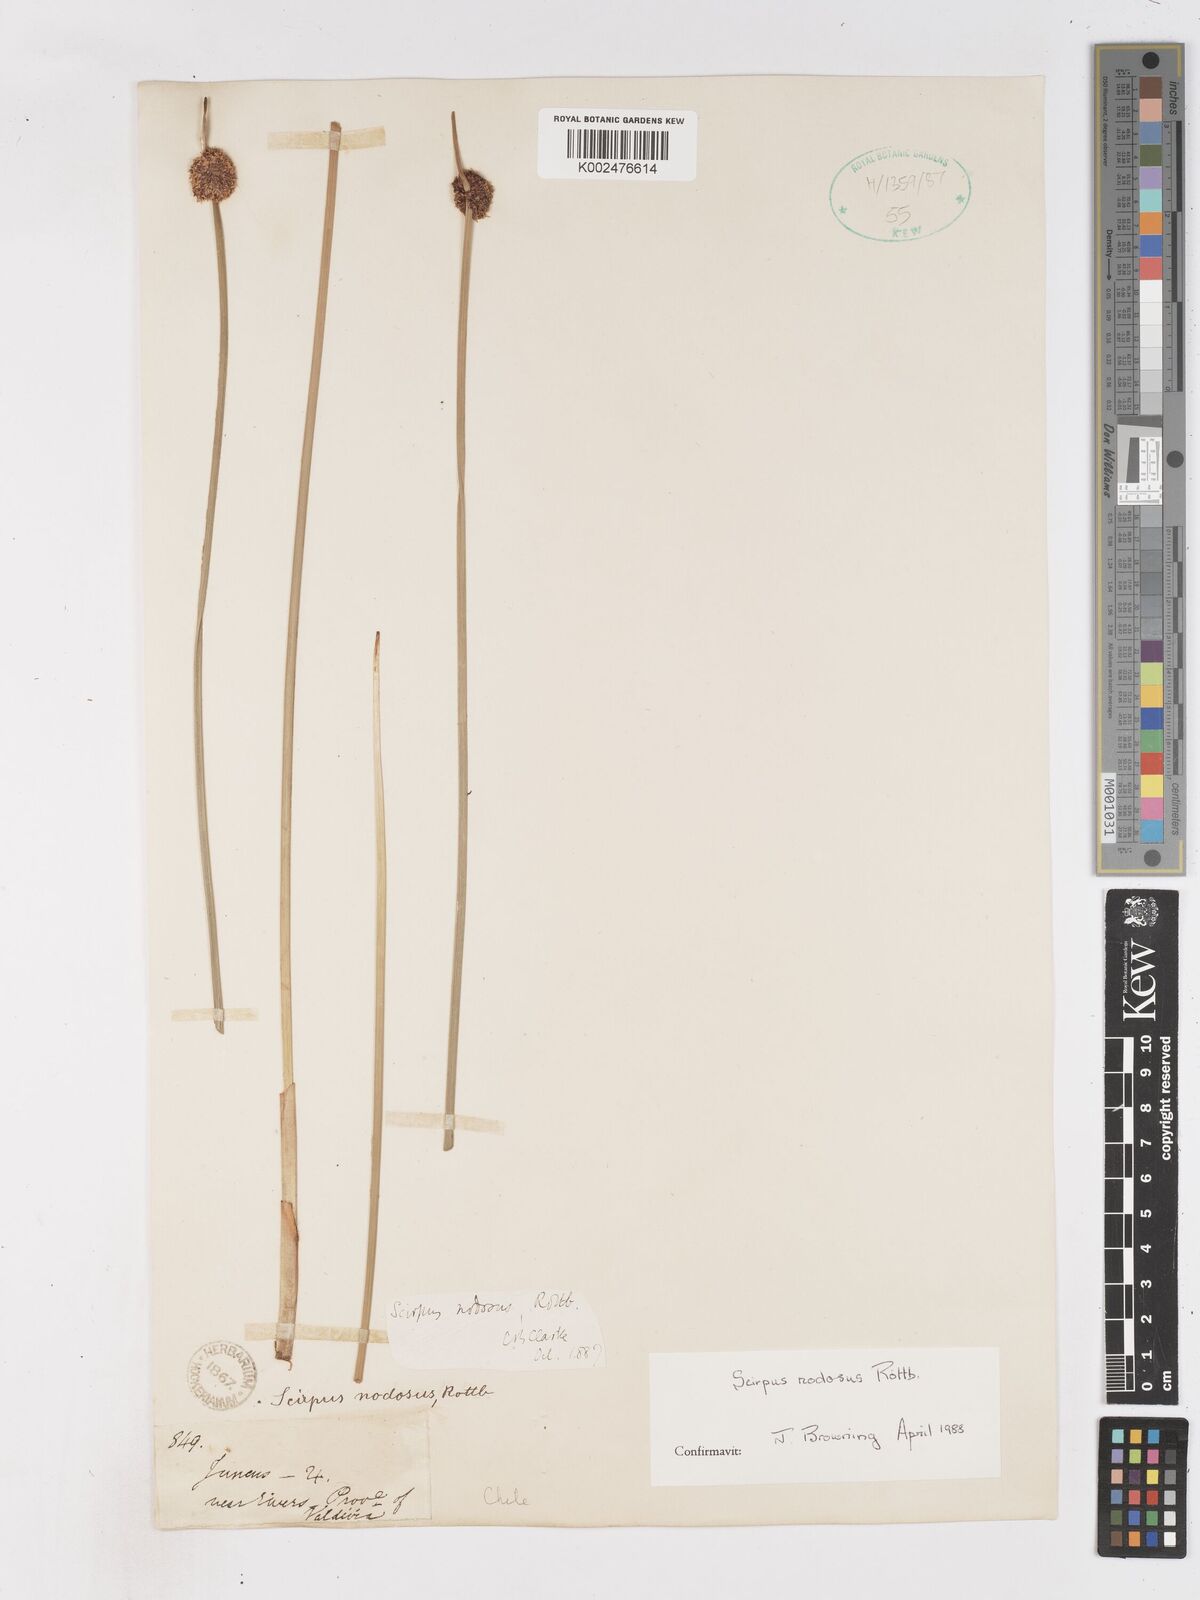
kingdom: Plantae
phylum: Tracheophyta
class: Liliopsida
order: Poales
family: Cyperaceae
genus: Ficinia
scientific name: Ficinia nodosa
